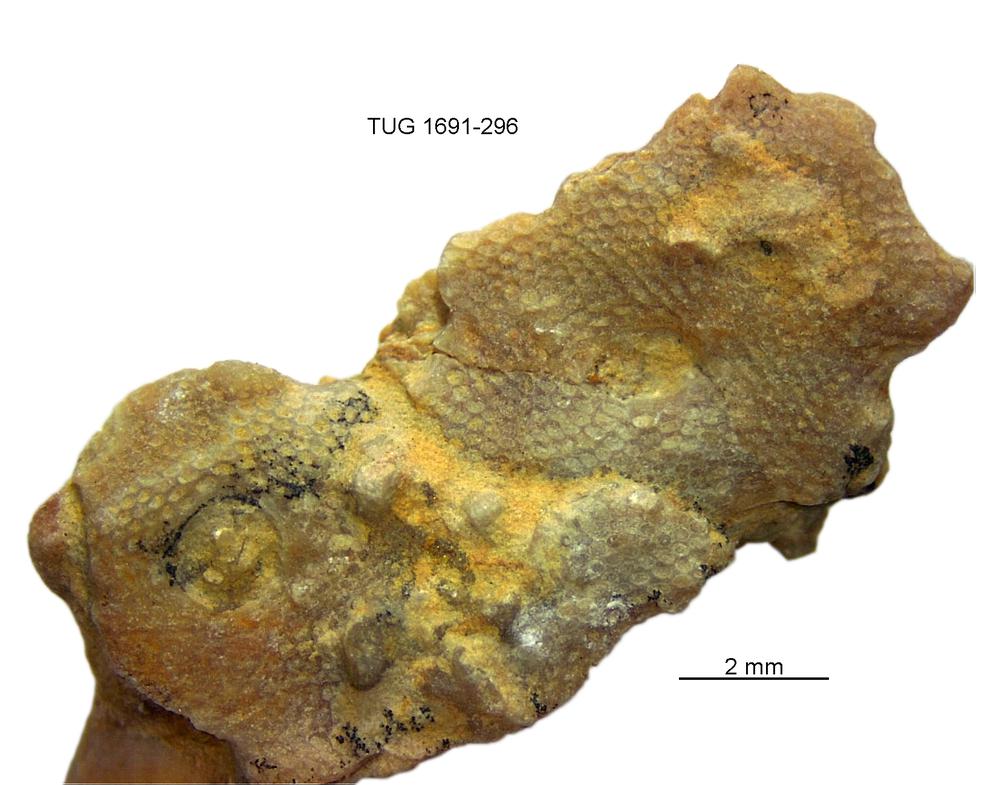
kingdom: Animalia
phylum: Bryozoa
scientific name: Bryozoa
